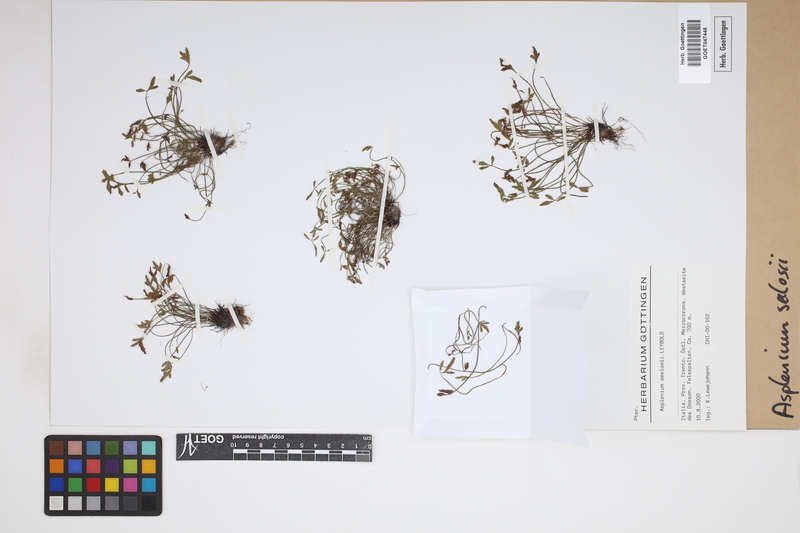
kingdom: Plantae
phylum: Tracheophyta
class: Polypodiopsida
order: Polypodiales
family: Aspleniaceae
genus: Asplenium
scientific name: Asplenium seelosii
